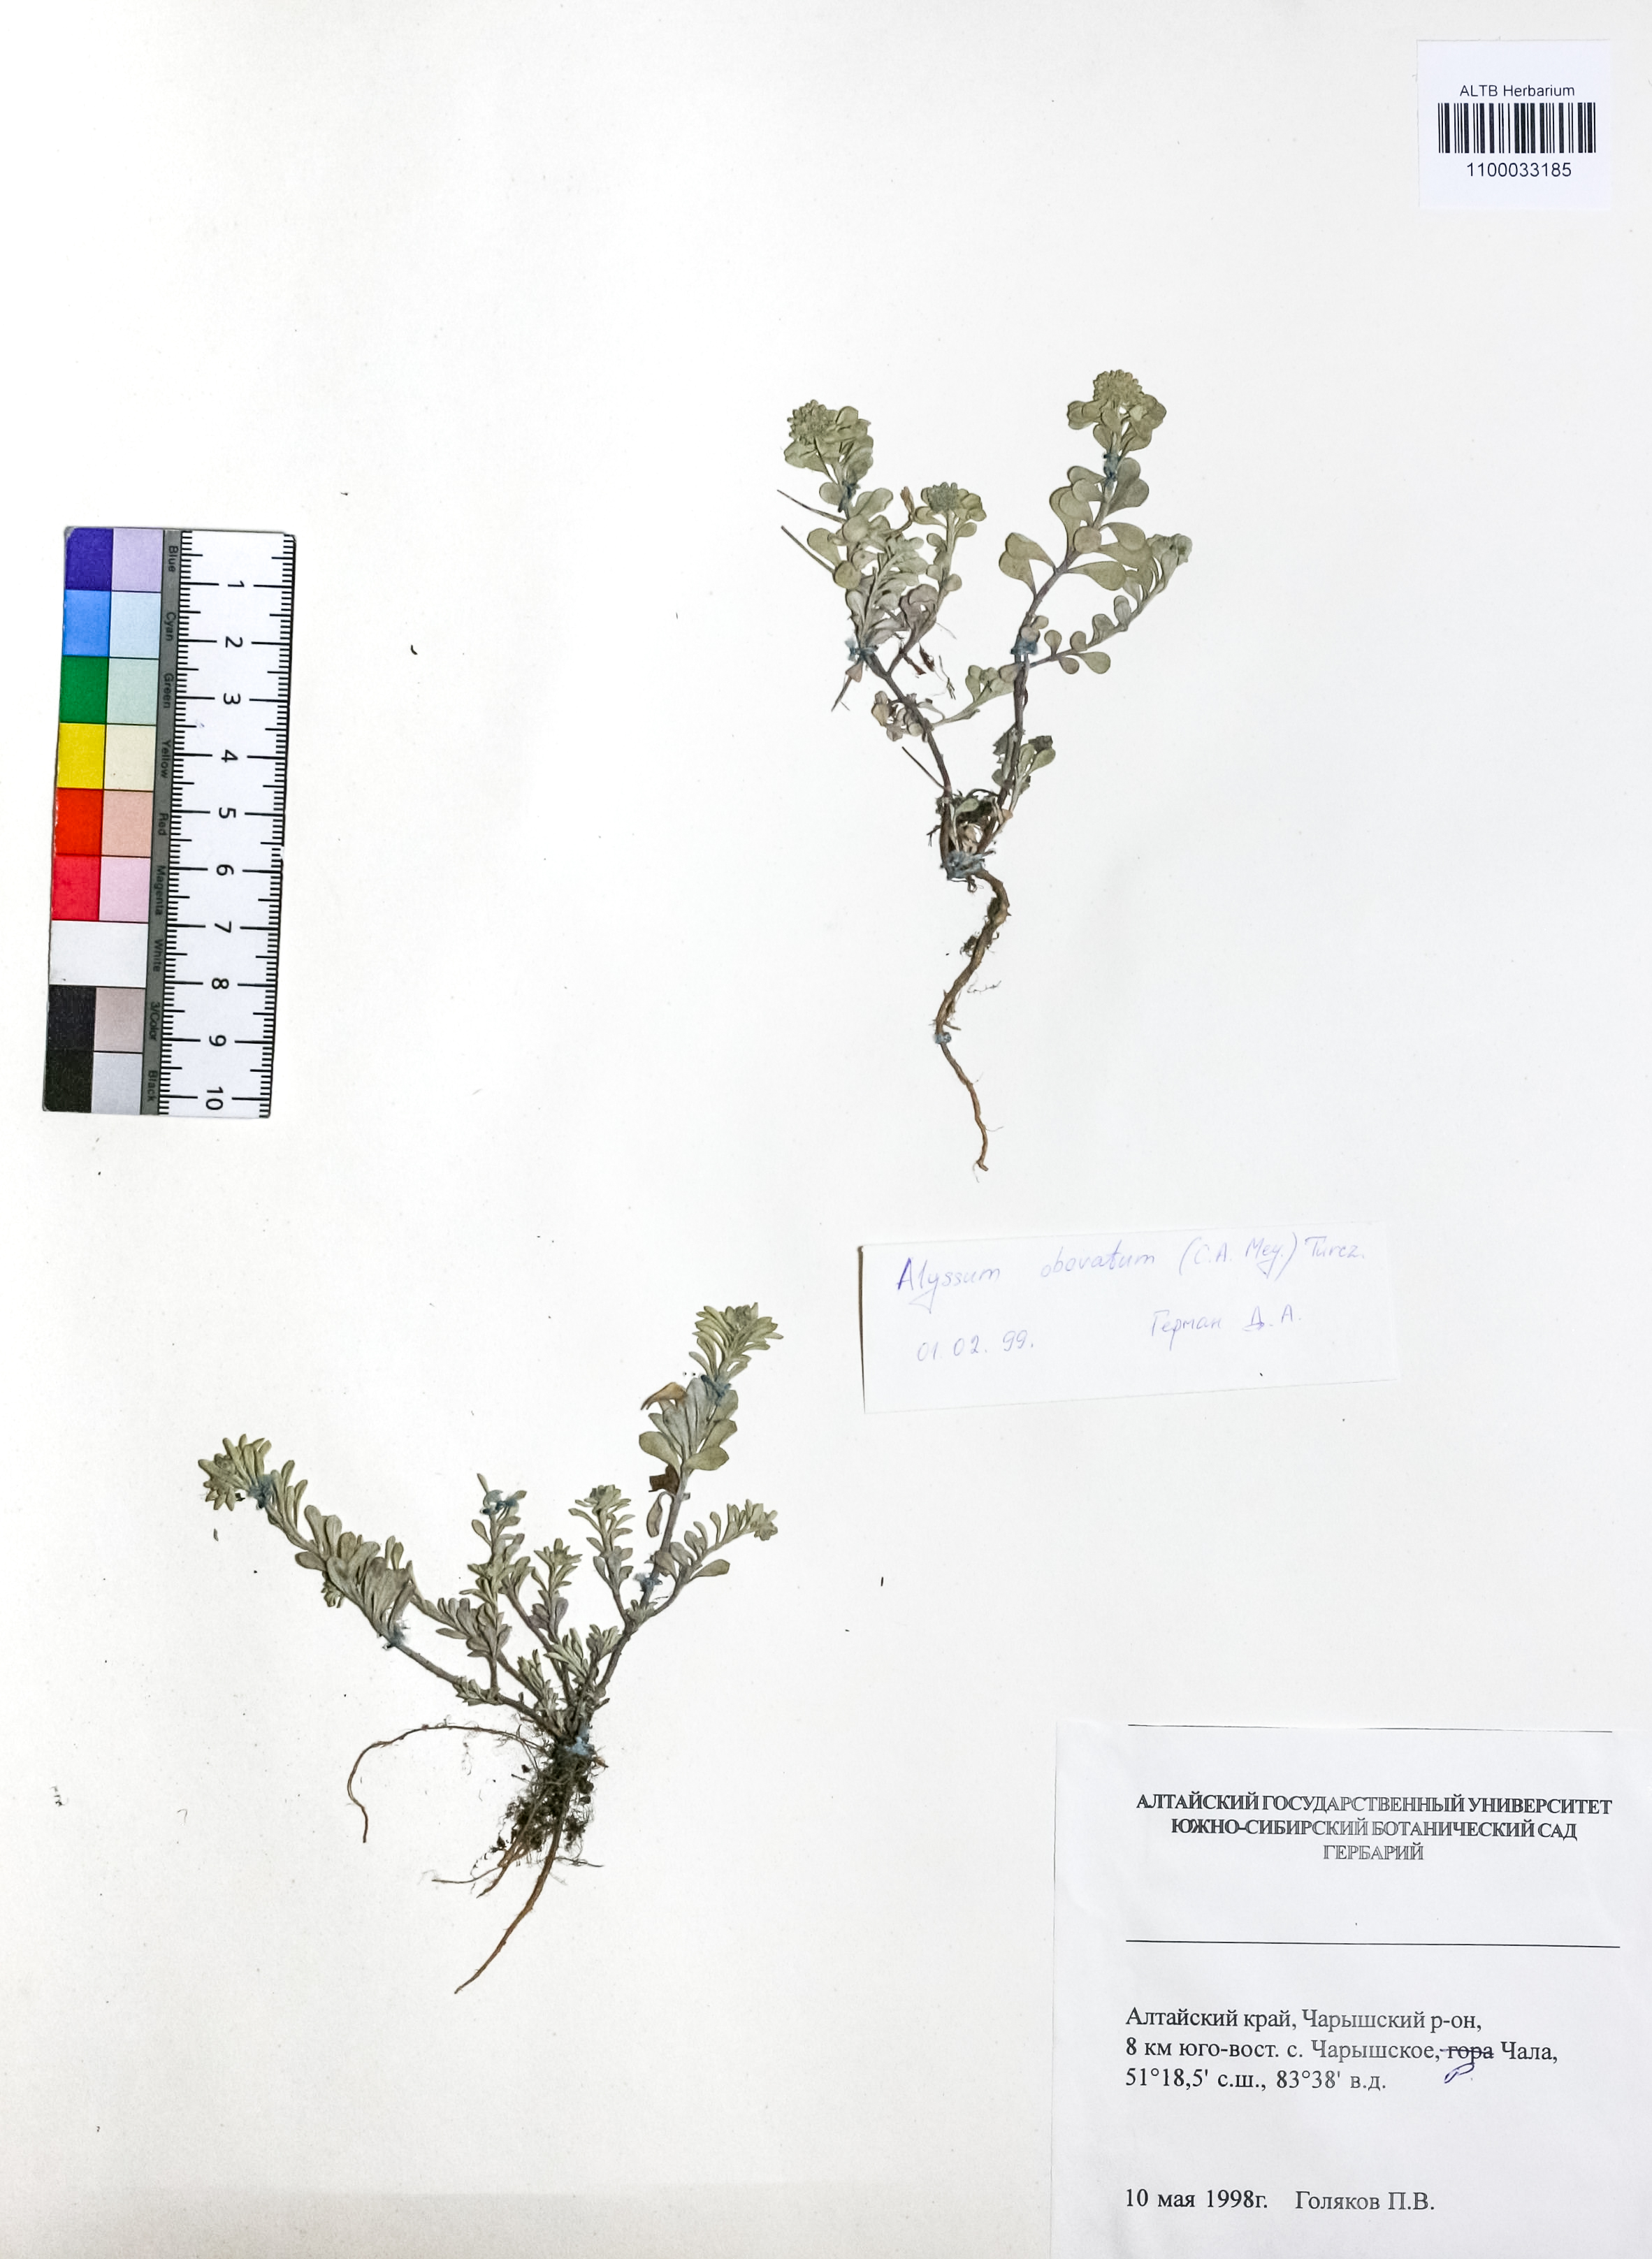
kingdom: Plantae
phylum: Tracheophyta
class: Magnoliopsida
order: Brassicales
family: Brassicaceae
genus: Odontarrhena
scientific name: Odontarrhena obovata
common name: American alyssum
